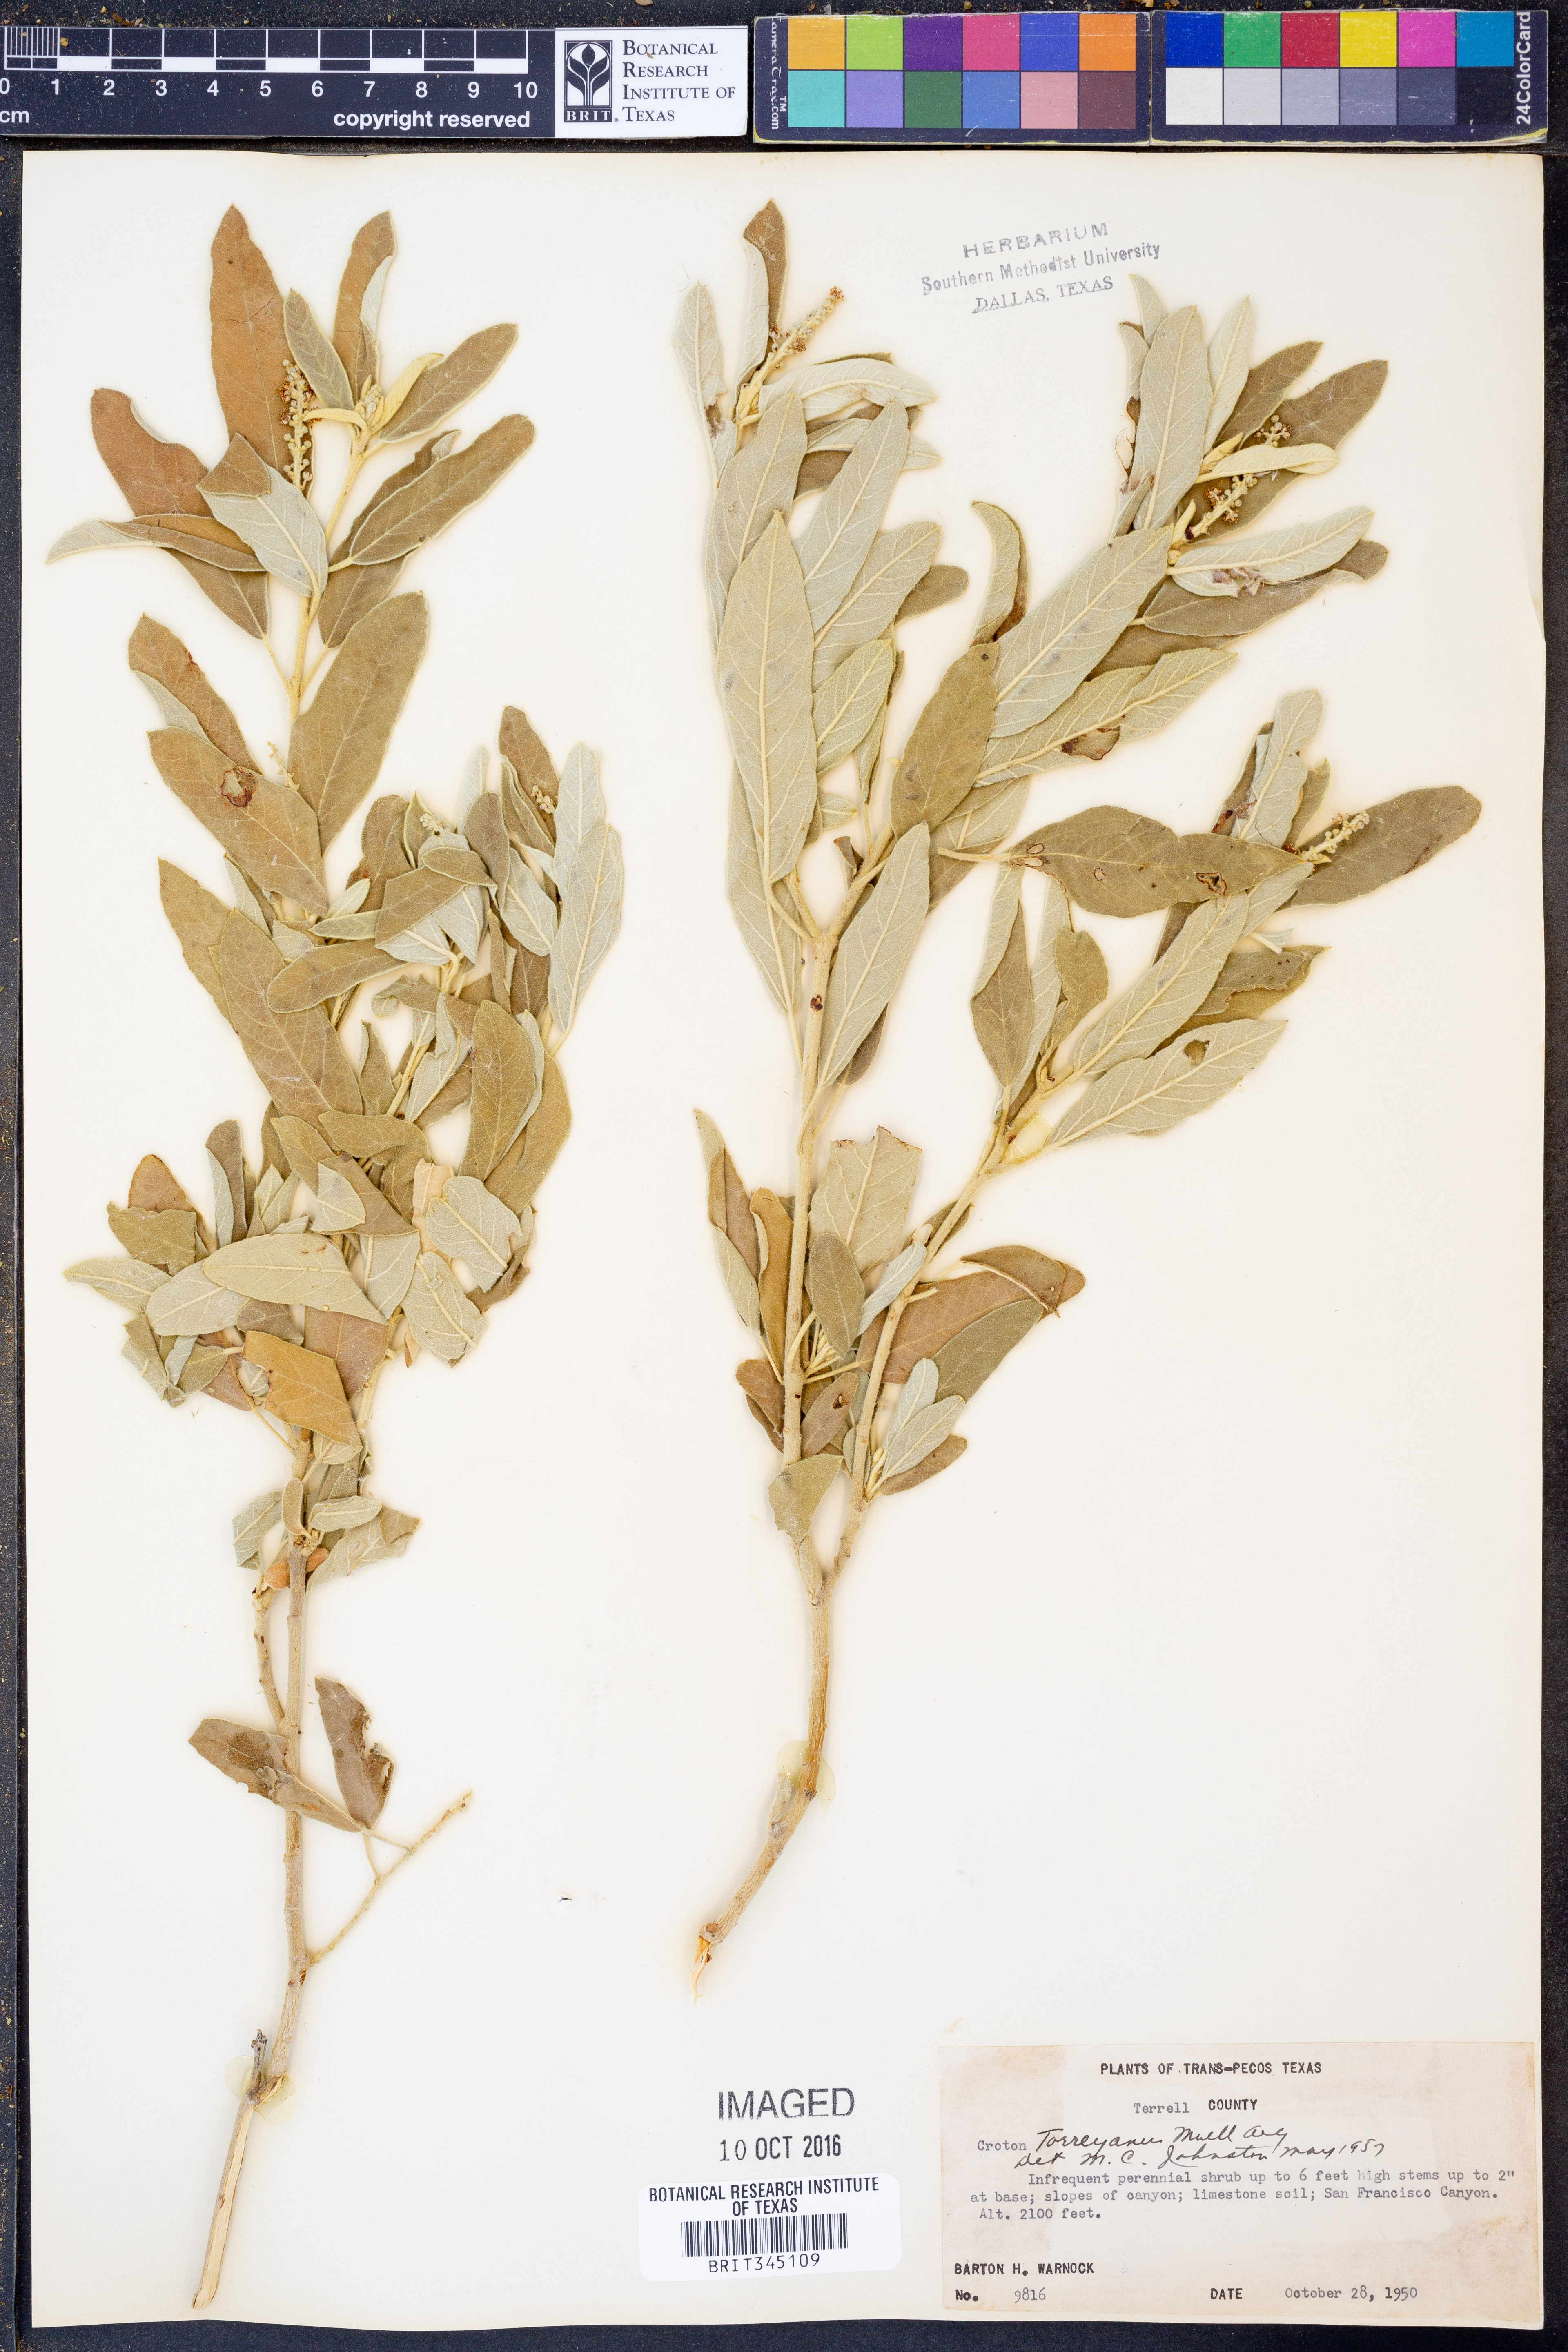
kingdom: Plantae
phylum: Tracheophyta
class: Magnoliopsida
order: Malpighiales
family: Euphorbiaceae
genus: Croton
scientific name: Croton incanus
